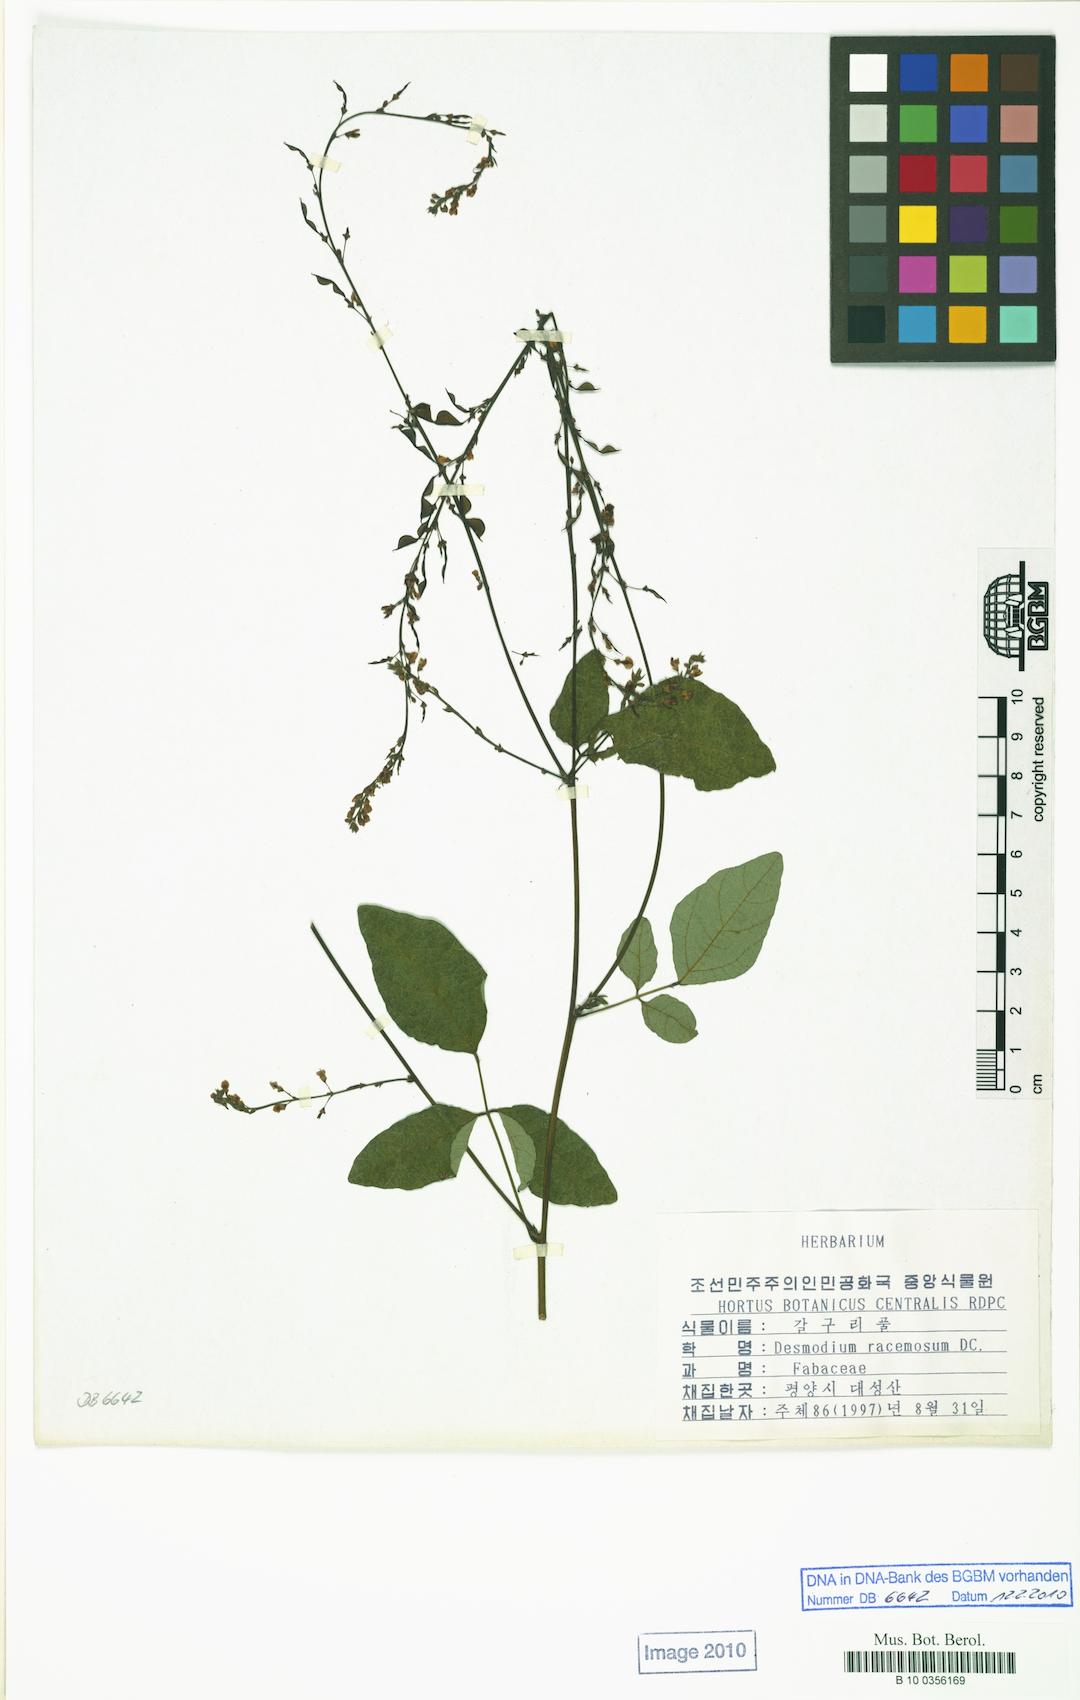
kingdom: Plantae
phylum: Tracheophyta
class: Magnoliopsida
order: Fabales
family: Fabaceae
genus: Hylodesmum
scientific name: Hylodesmum podocarpum
